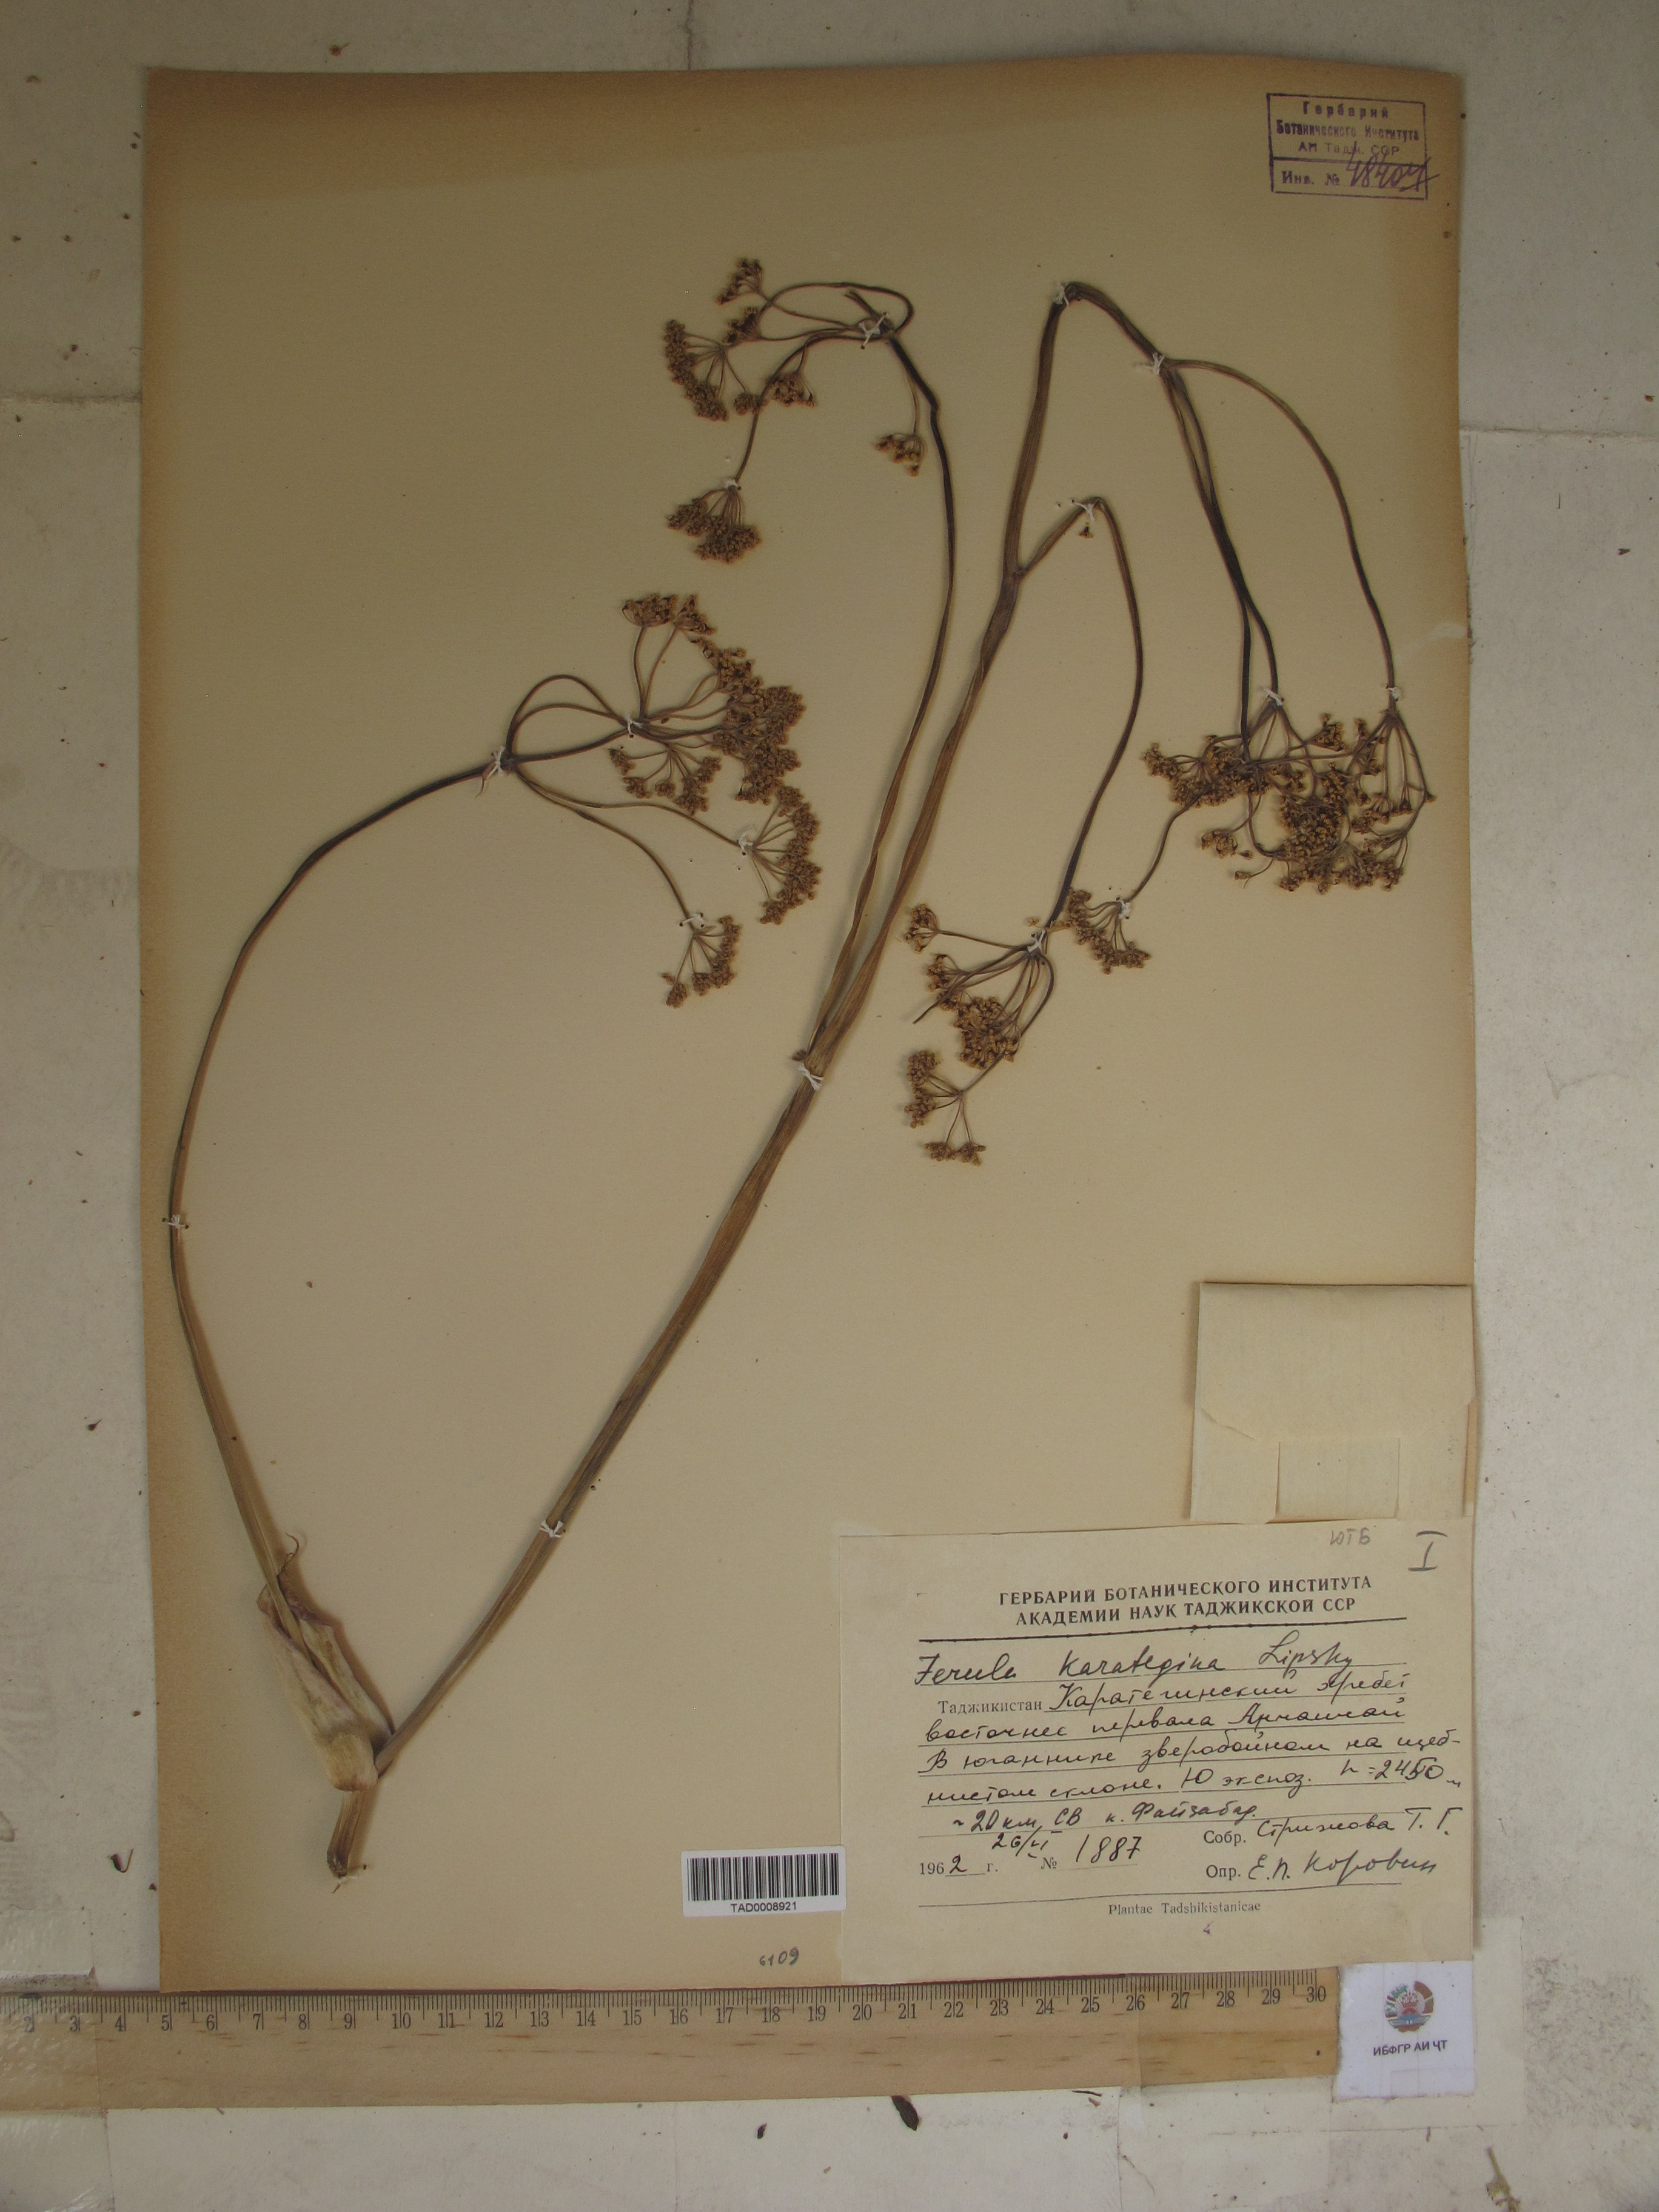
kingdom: Plantae
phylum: Tracheophyta
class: Magnoliopsida
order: Apiales
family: Apiaceae
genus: Ferula
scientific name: Ferula karategina
